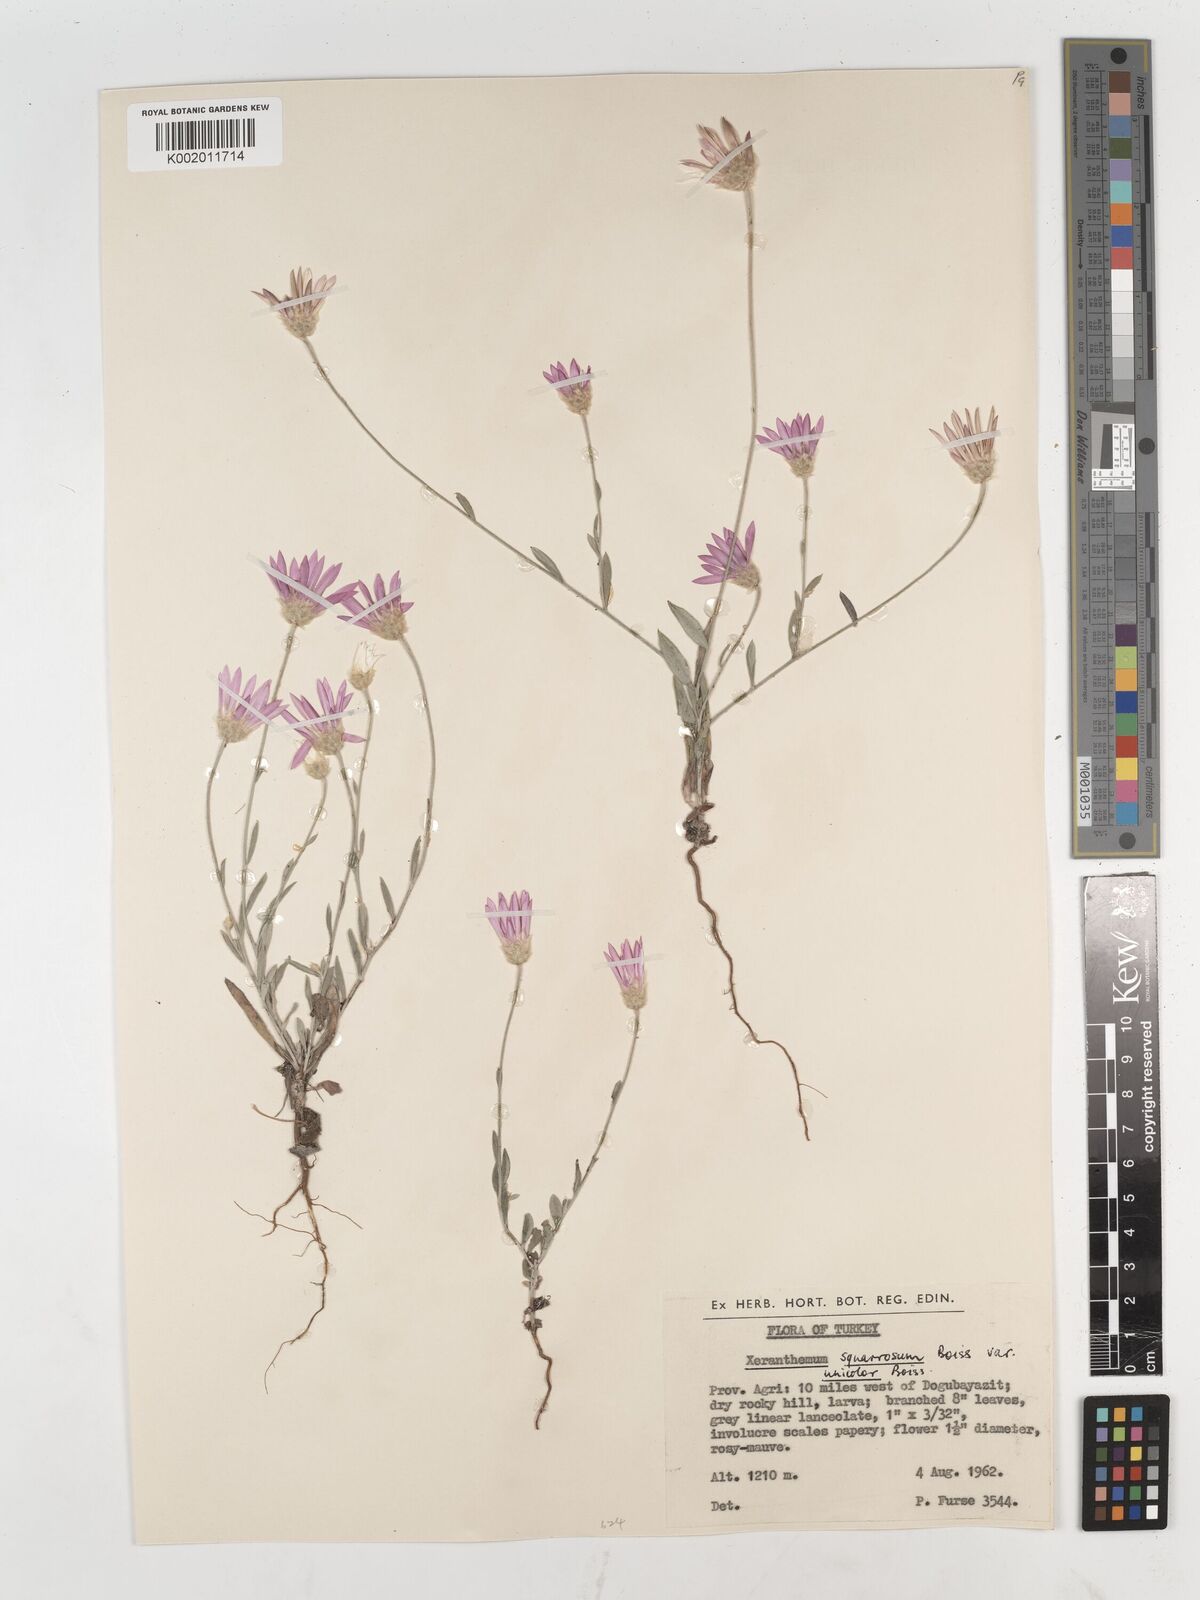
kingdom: Plantae
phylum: Tracheophyta
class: Magnoliopsida
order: Asterales
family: Asteraceae
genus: Xeranthemum
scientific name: Xeranthemum squarrosum
